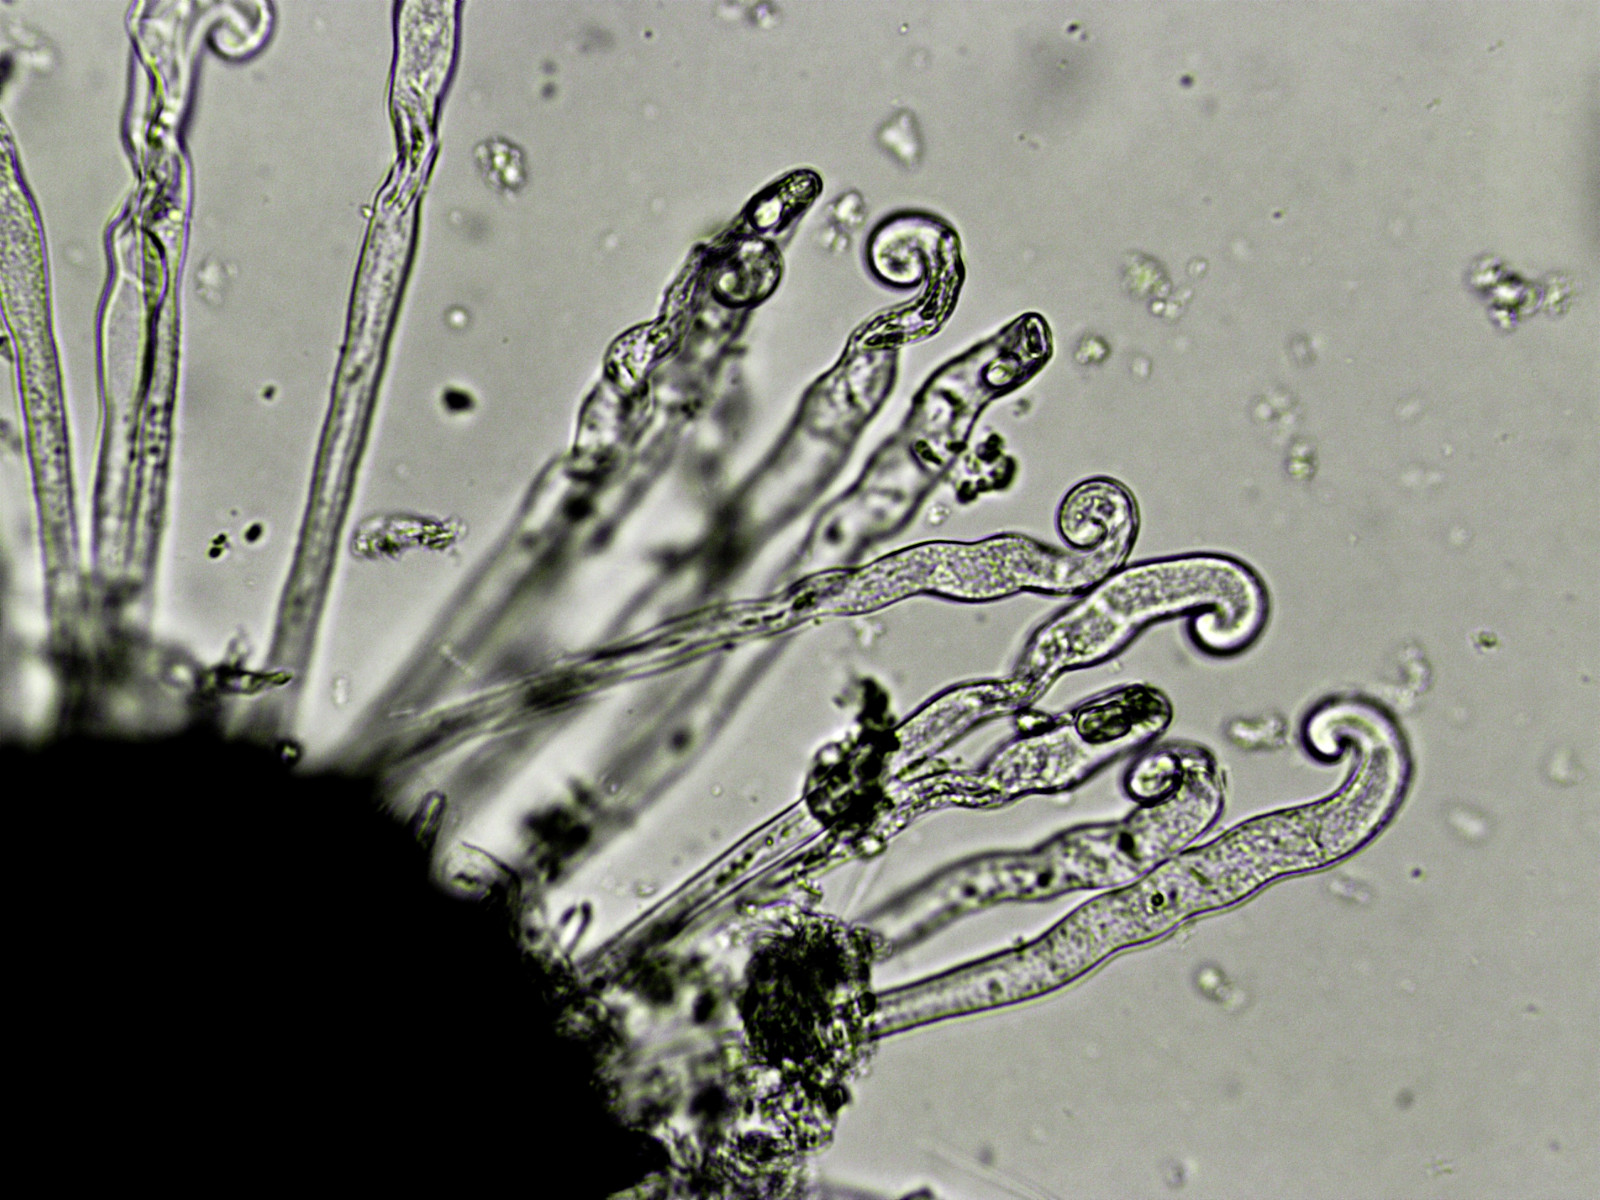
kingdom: Fungi
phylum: Ascomycota
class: Leotiomycetes
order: Helotiales
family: Erysiphaceae
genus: Erysiphe
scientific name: Erysiphe flexuosa
